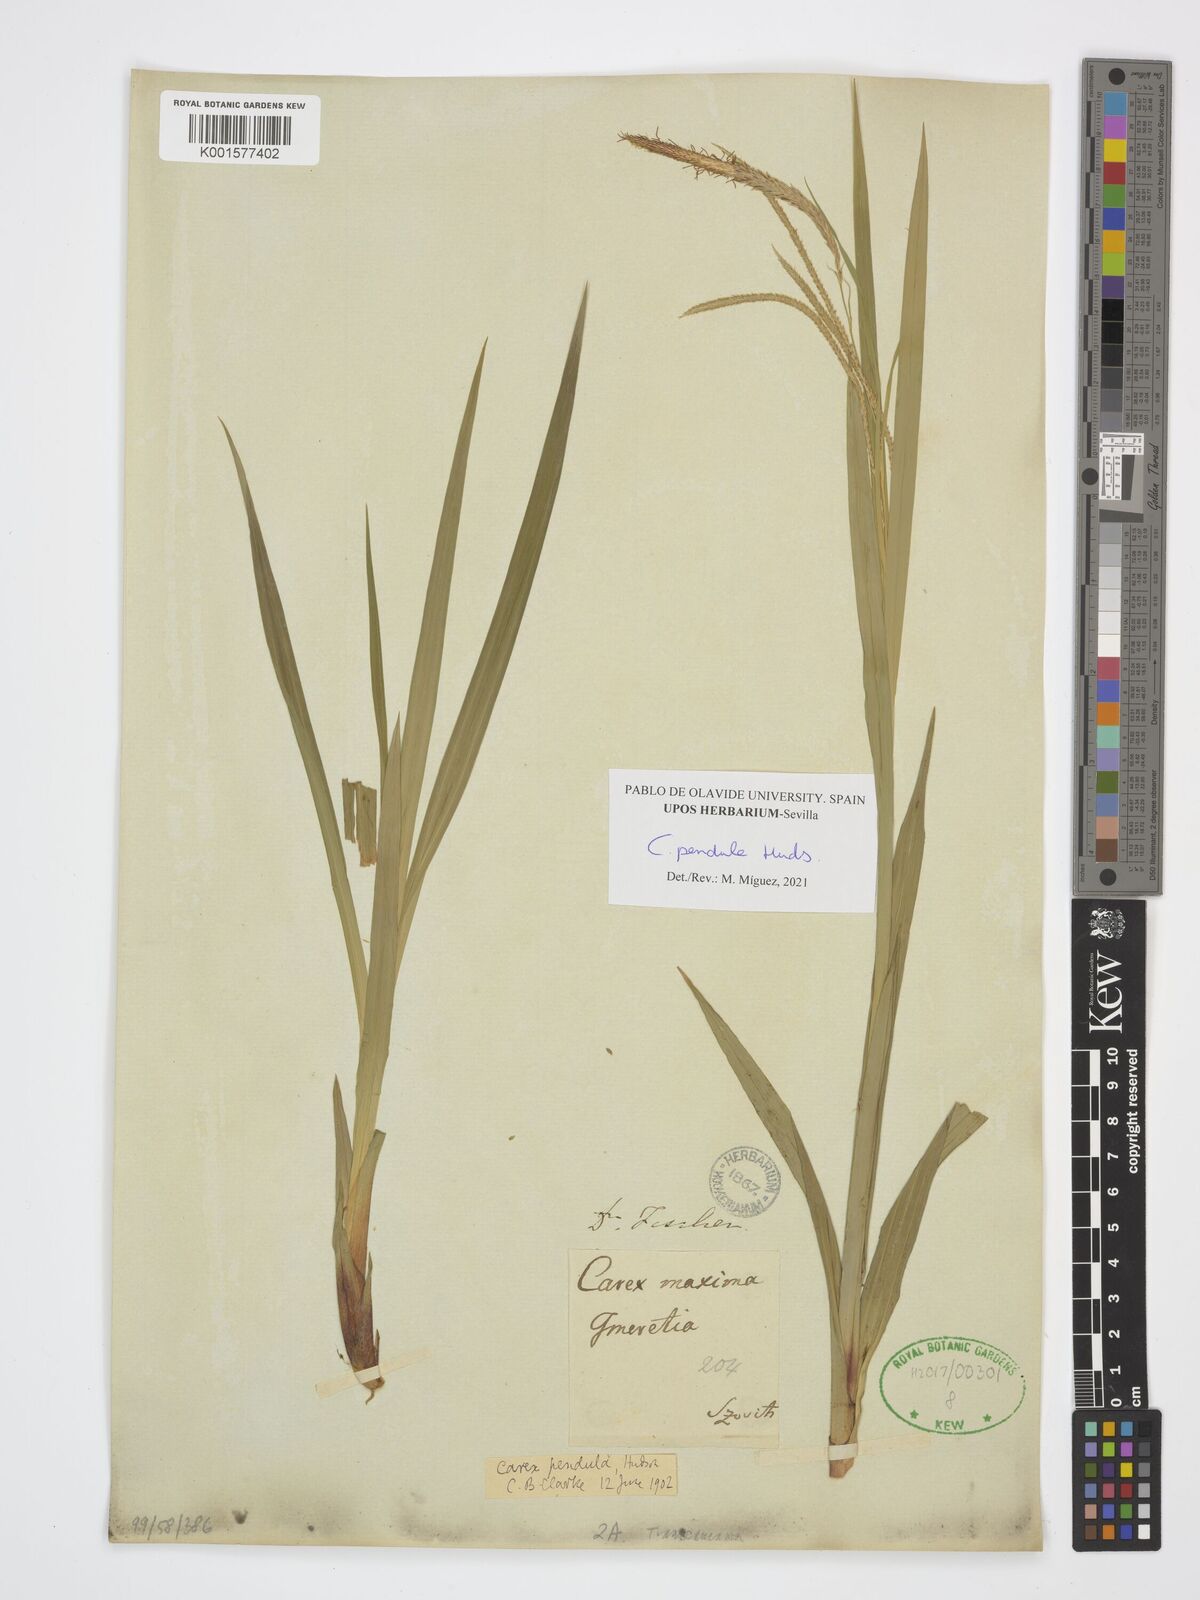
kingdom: Plantae
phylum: Tracheophyta
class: Liliopsida
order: Poales
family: Cyperaceae
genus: Carex
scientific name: Carex pendula
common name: Pendulous sedge
